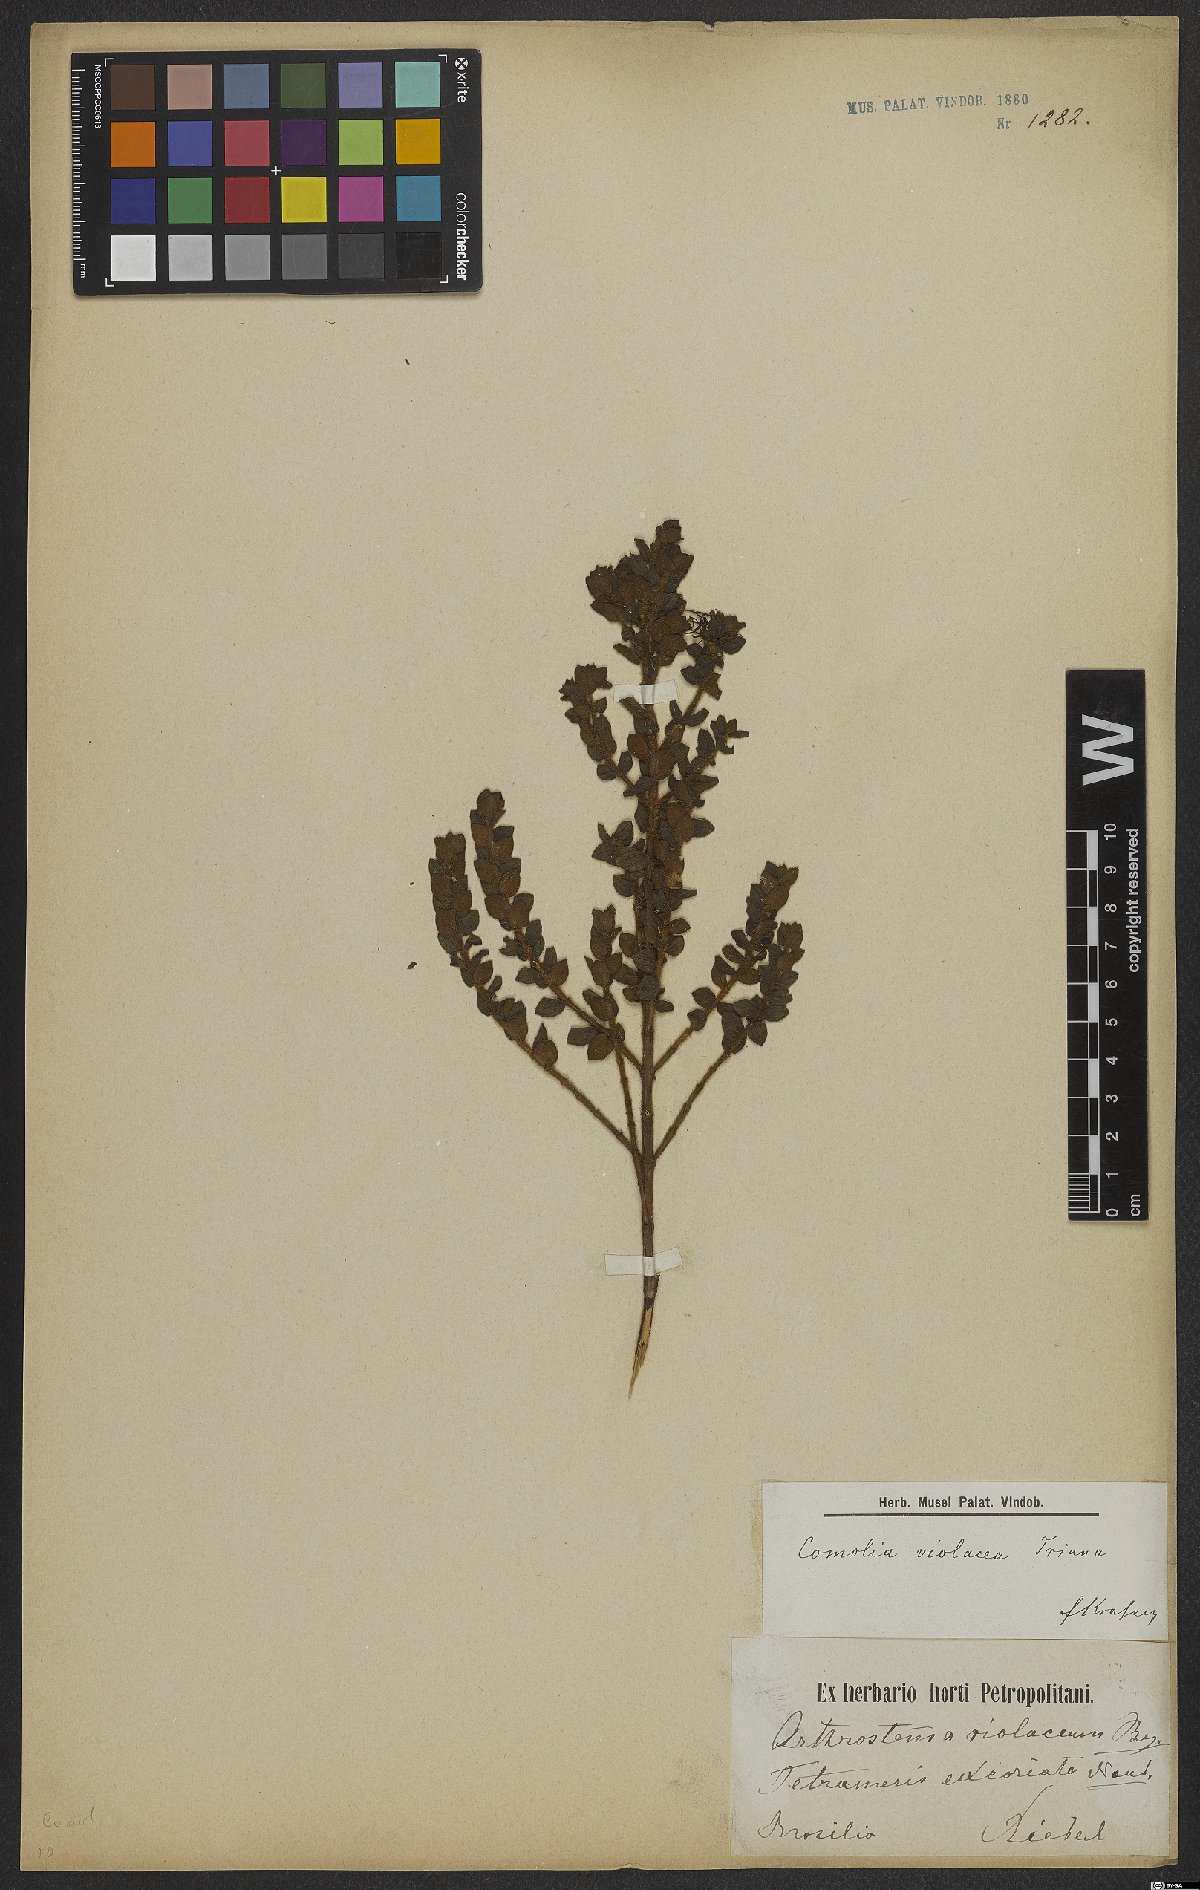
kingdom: Plantae
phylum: Tracheophyta
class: Magnoliopsida
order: Myrtales
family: Melastomataceae
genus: Fritzschia
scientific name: Fritzschia sessilis
